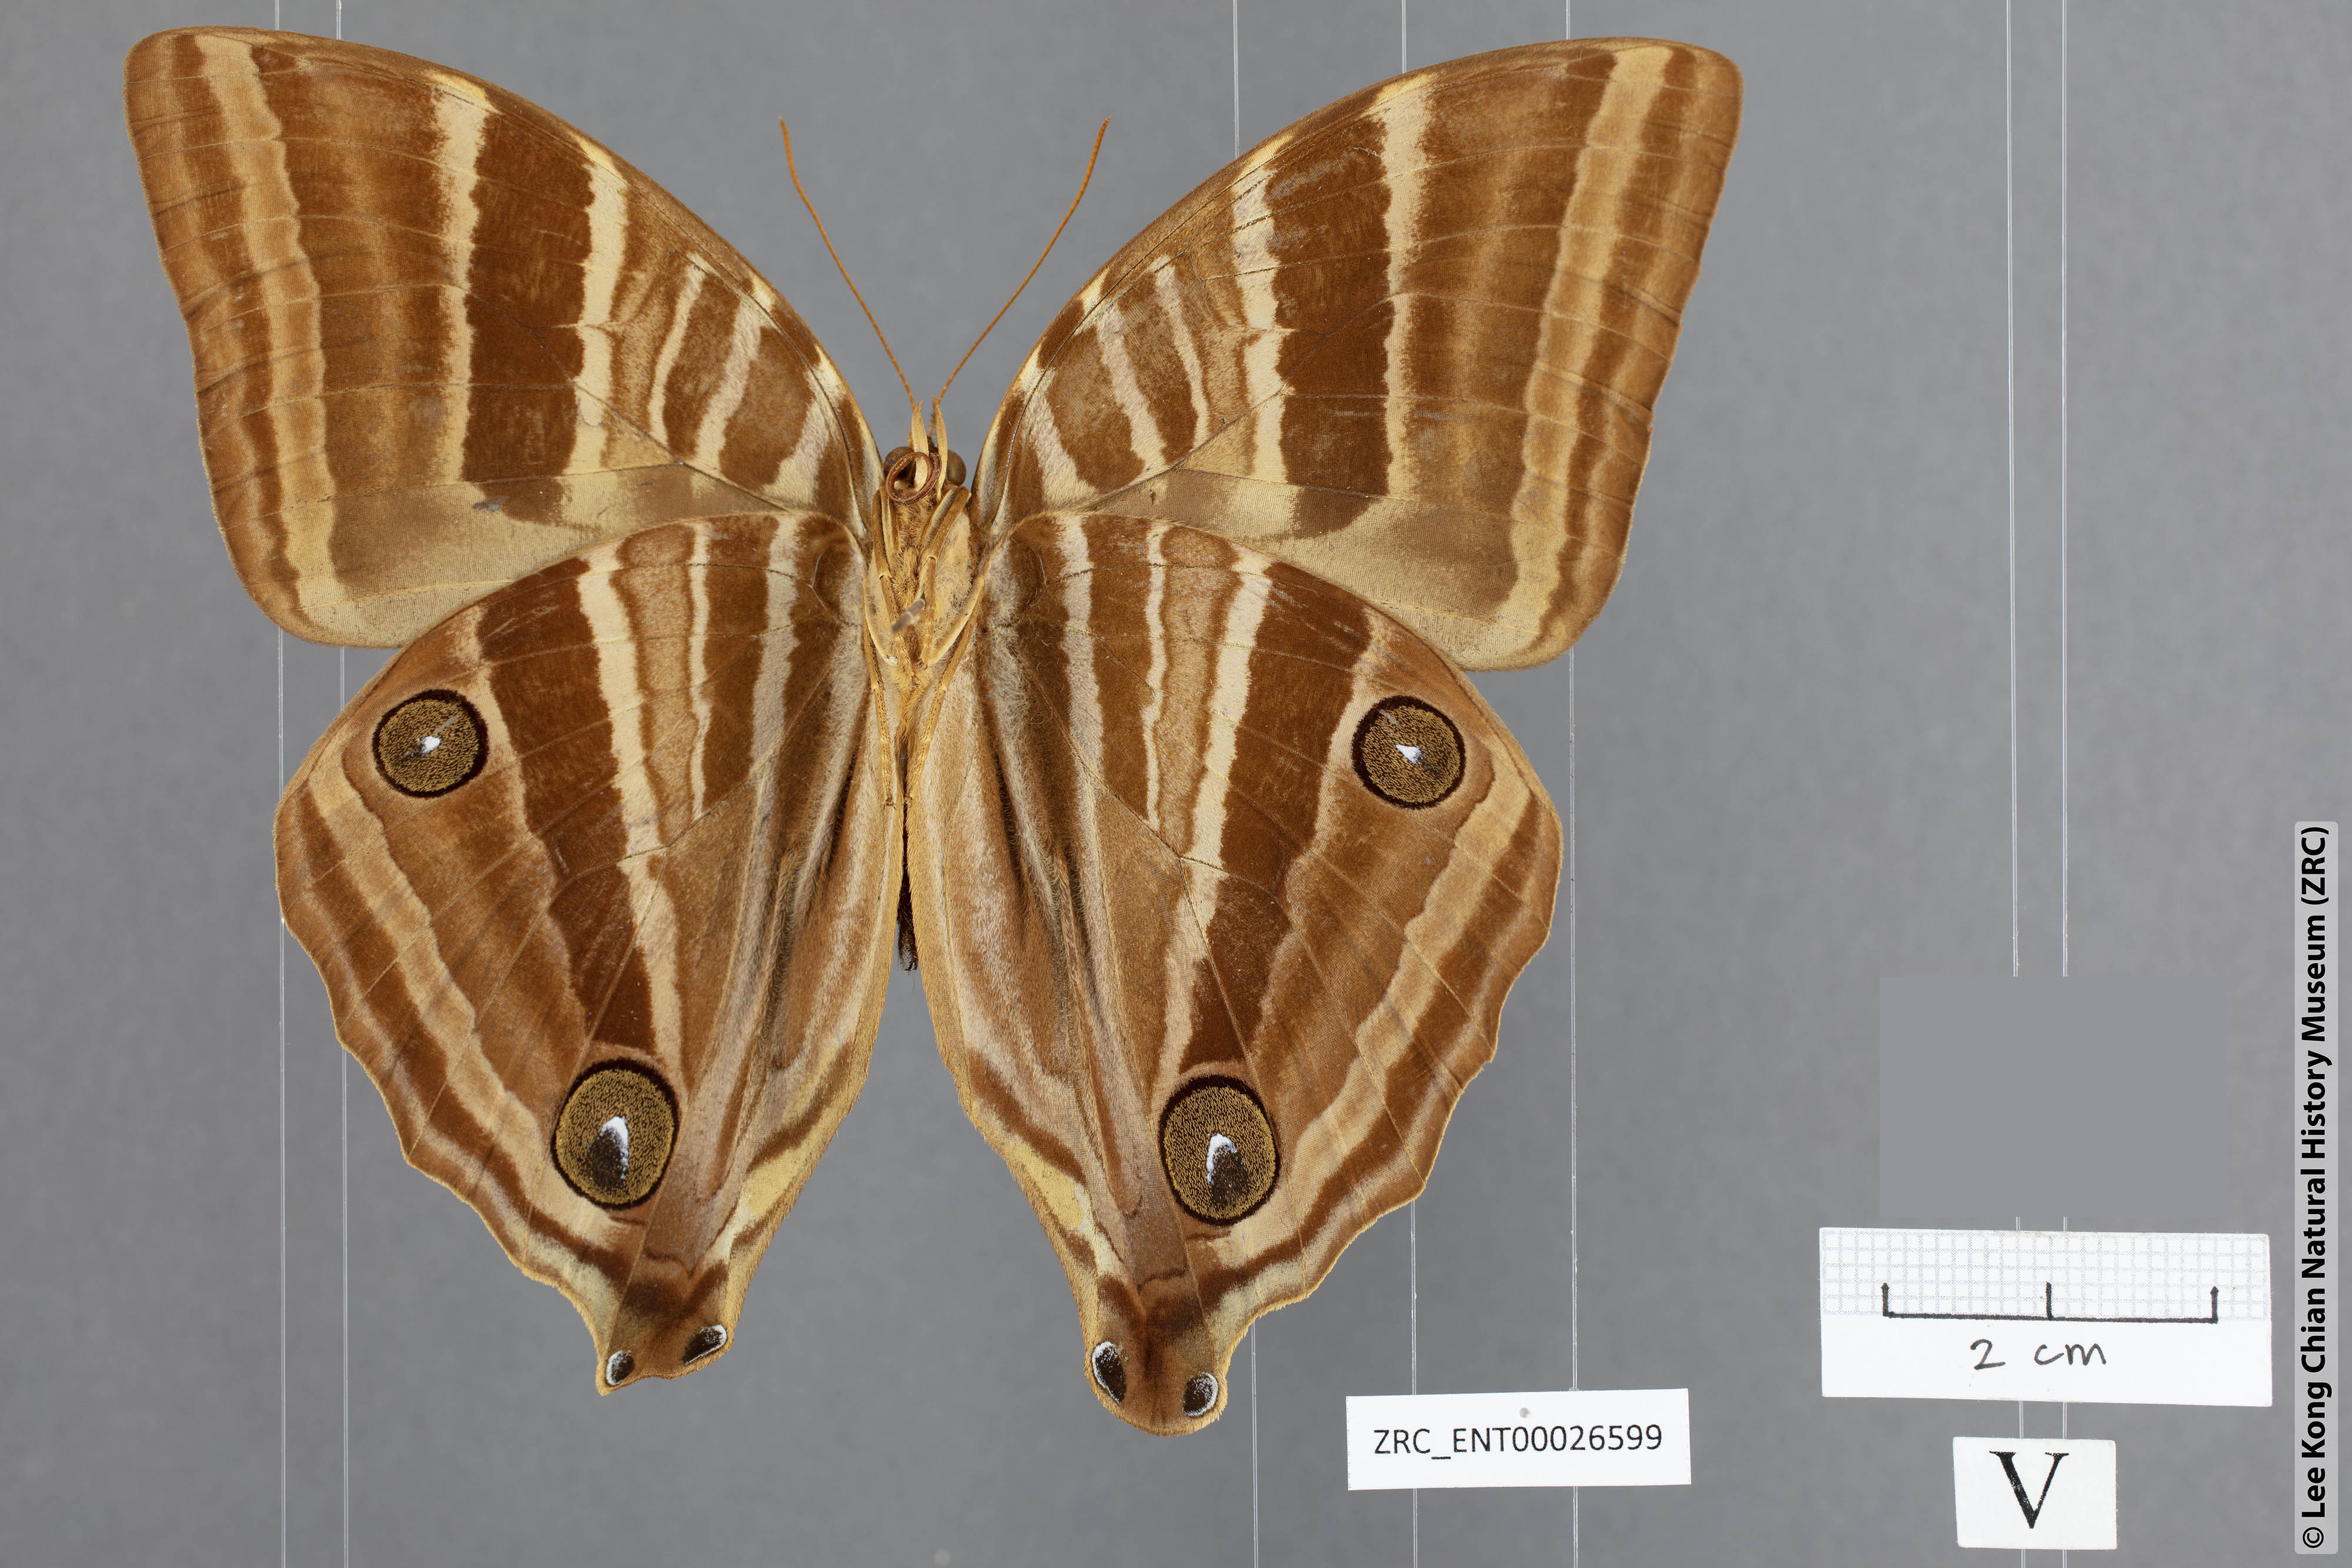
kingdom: Animalia
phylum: Arthropoda
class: Insecta
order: Lepidoptera
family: Nymphalidae
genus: Amathusia
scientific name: Amathusia binghami
